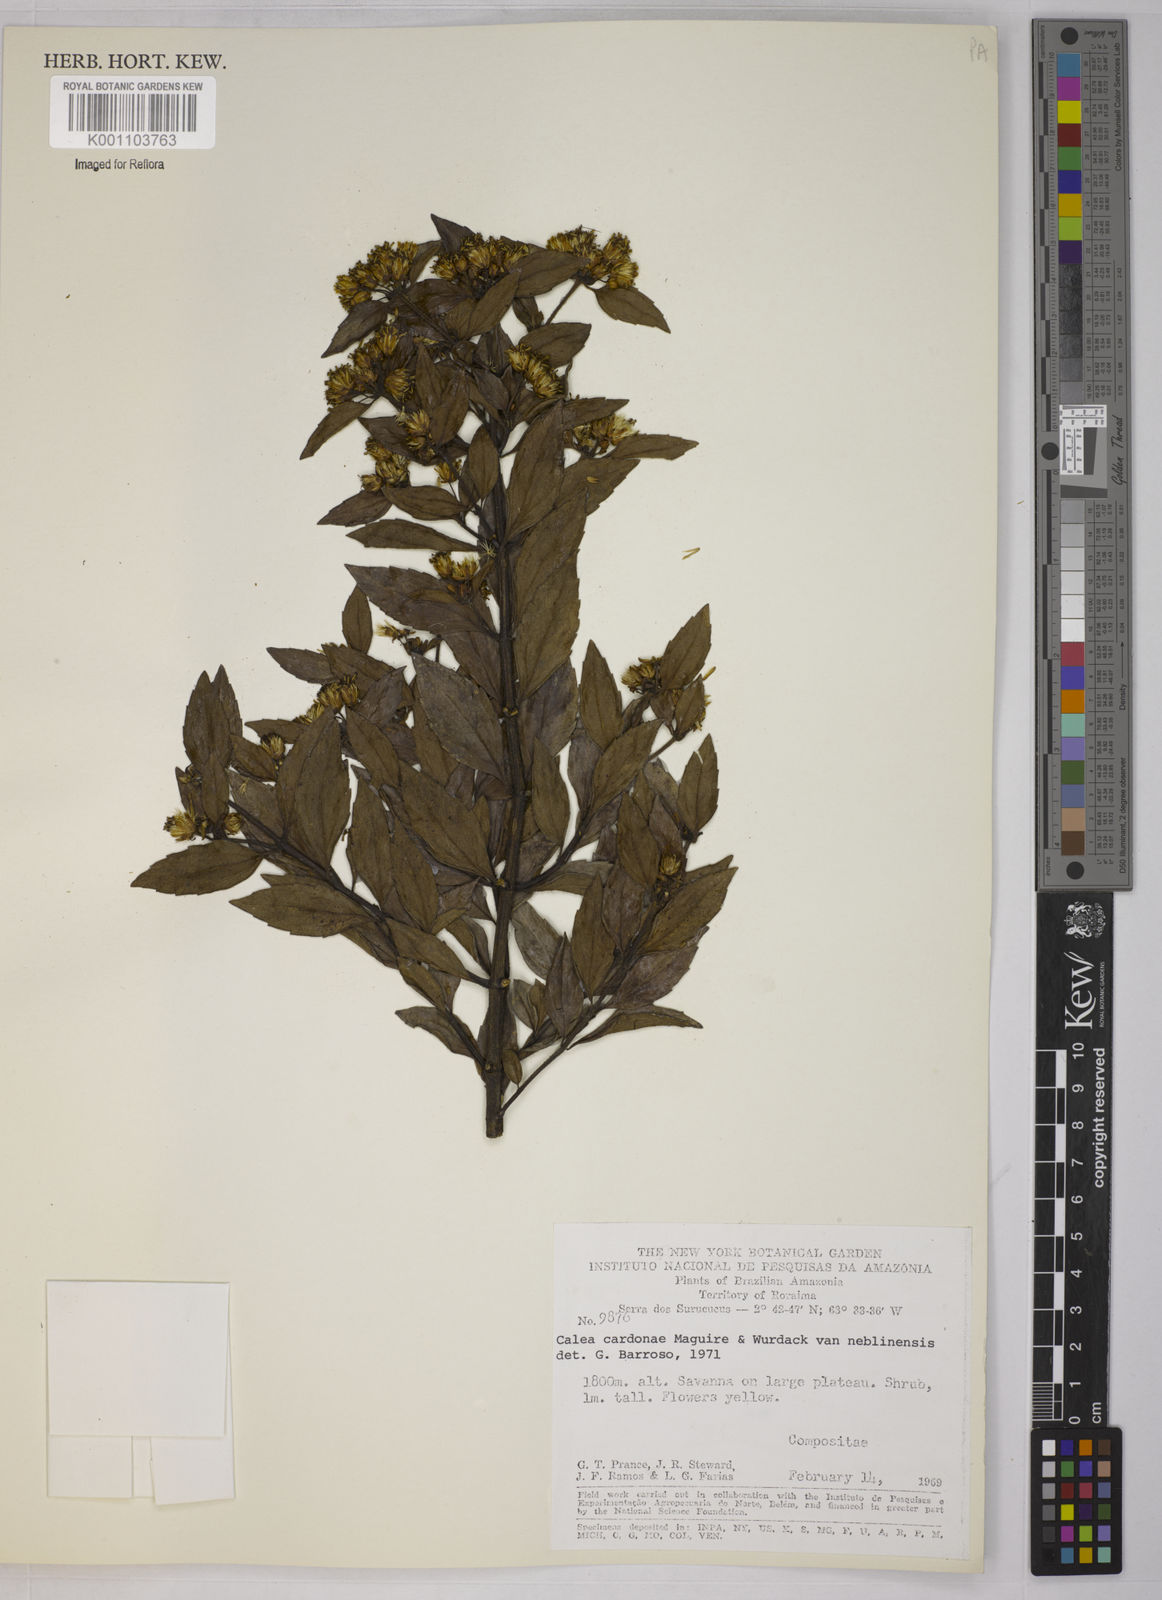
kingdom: Plantae
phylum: Tracheophyta
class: Magnoliopsida
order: Asterales
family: Asteraceae
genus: Calea
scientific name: Calea lucidivenia
